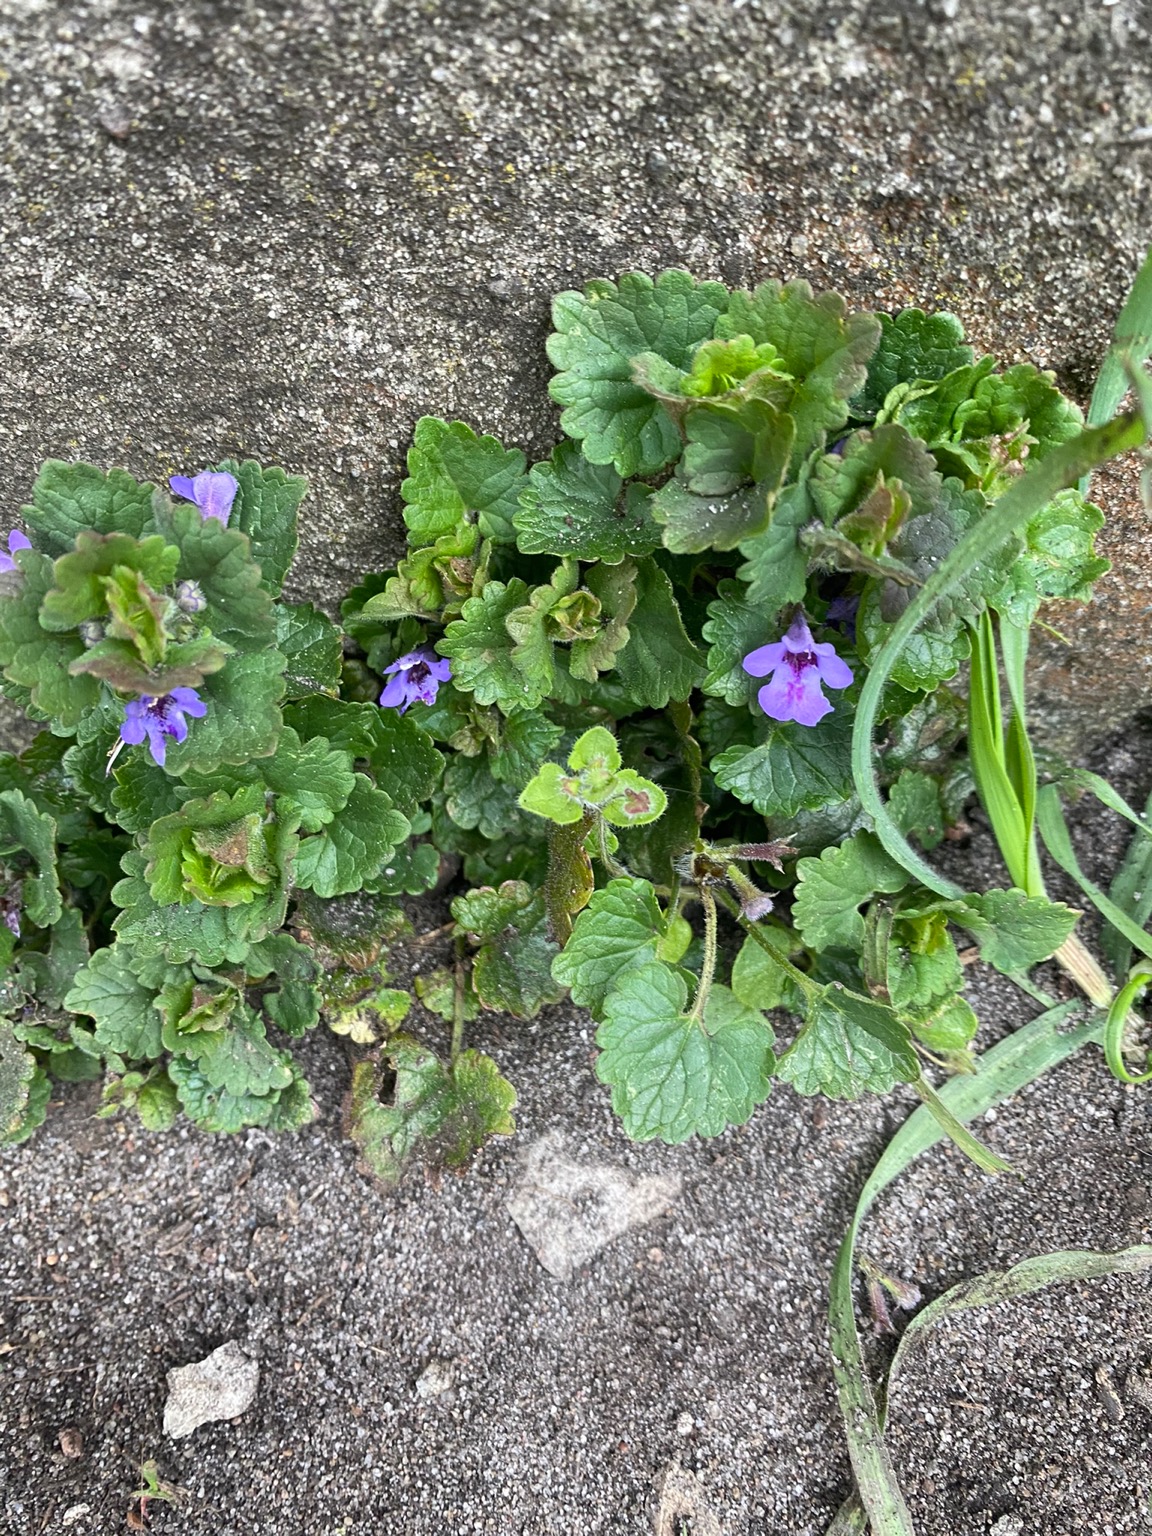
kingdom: Plantae
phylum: Tracheophyta
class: Magnoliopsida
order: Lamiales
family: Lamiaceae
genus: Glechoma
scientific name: Glechoma hederacea
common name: Korsknap
